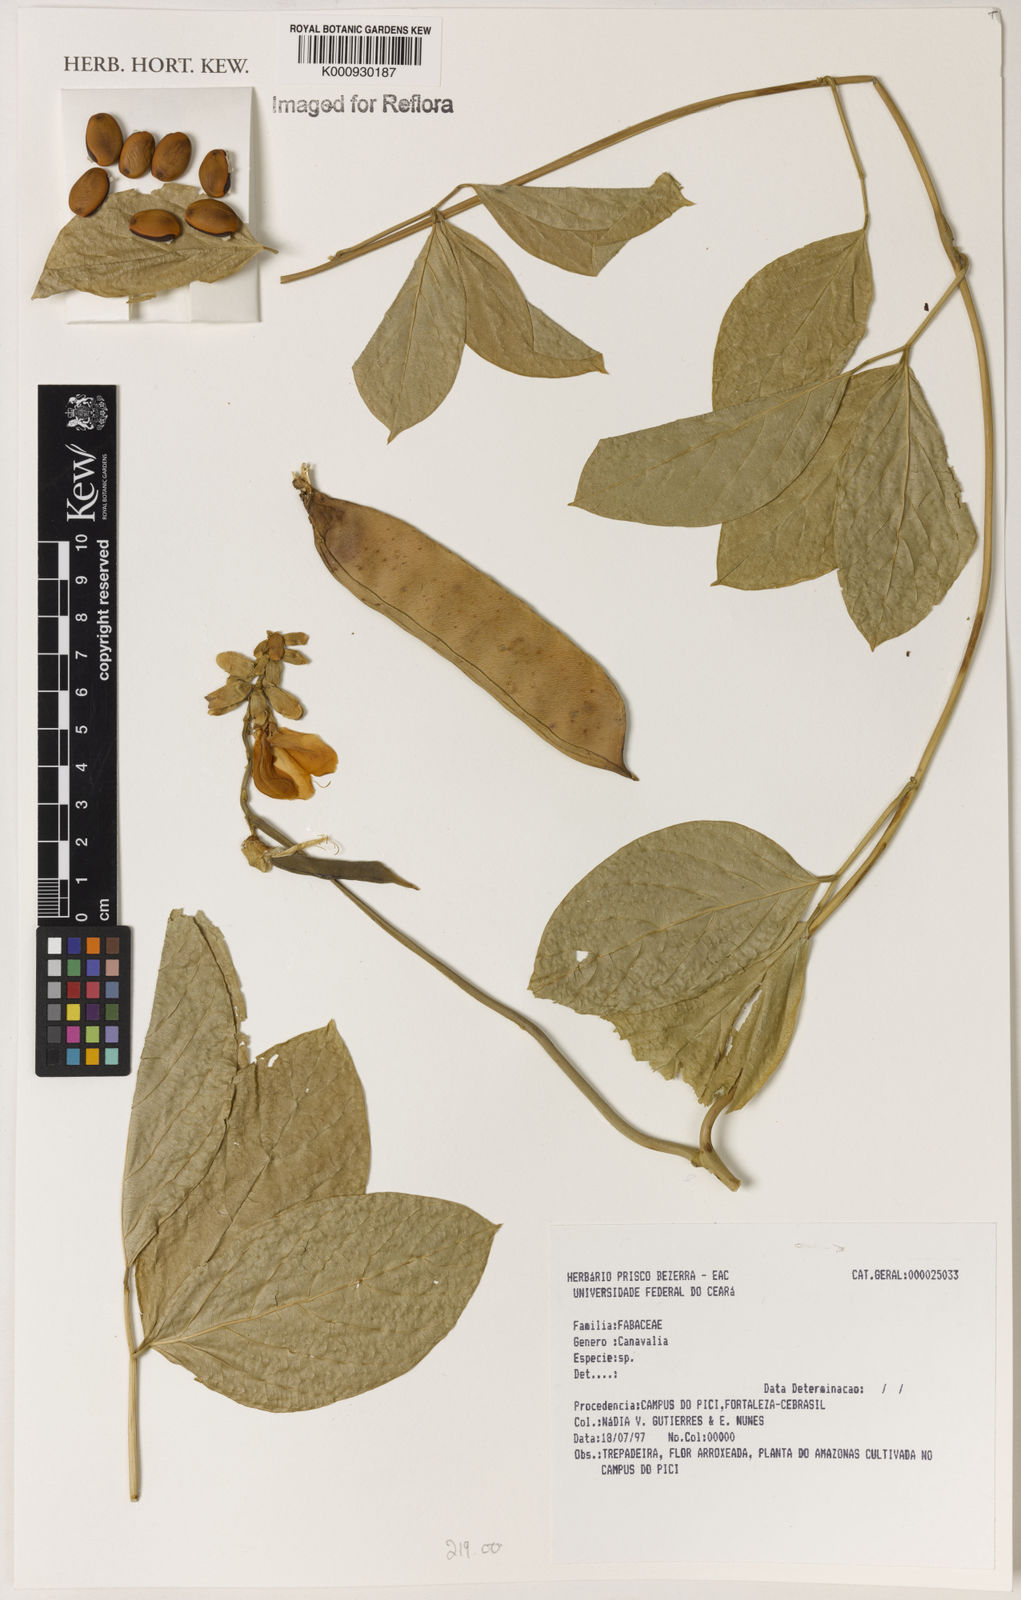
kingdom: Plantae
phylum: Tracheophyta
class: Magnoliopsida
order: Fabales
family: Fabaceae
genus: Canavalia
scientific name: Canavalia
